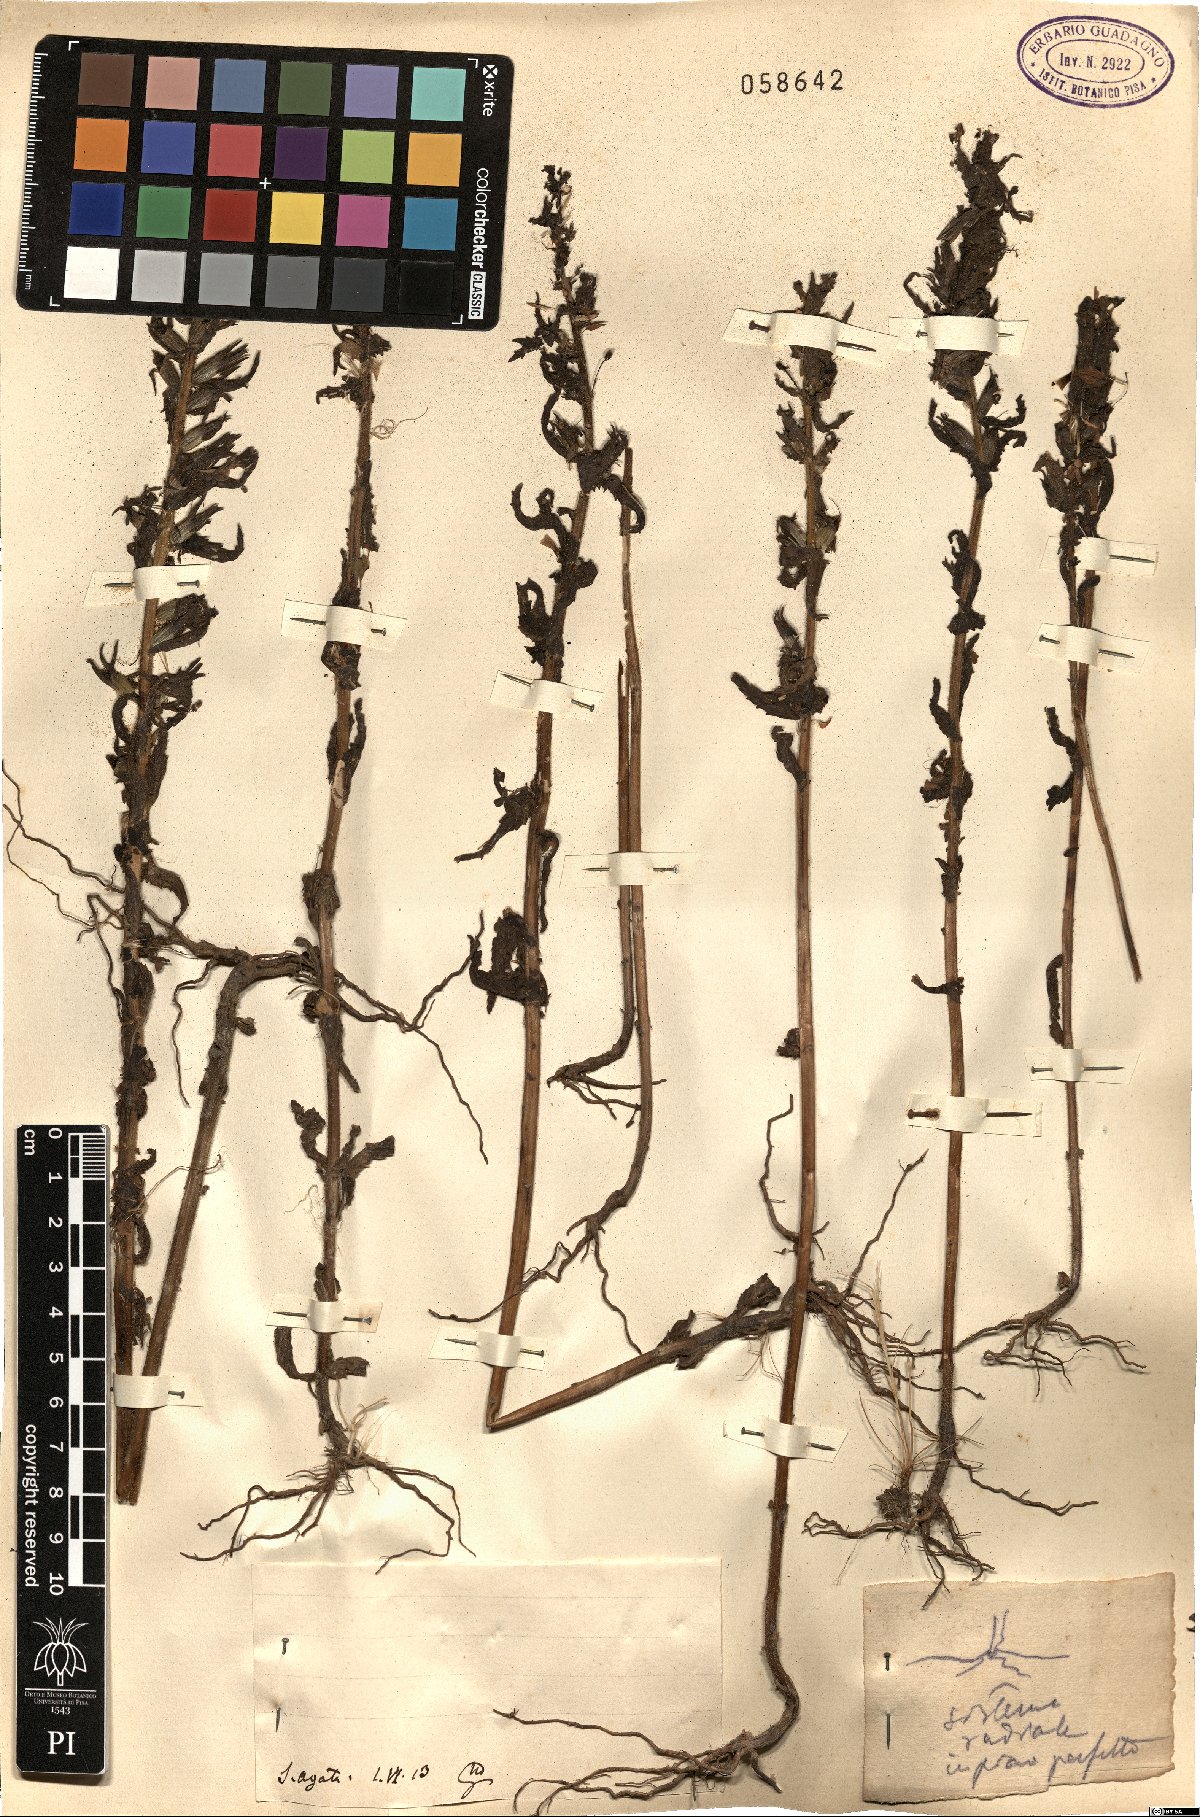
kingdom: Plantae
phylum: Tracheophyta
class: Magnoliopsida
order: Lamiales
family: Orobanchaceae
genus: Bartsia
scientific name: Bartsia
